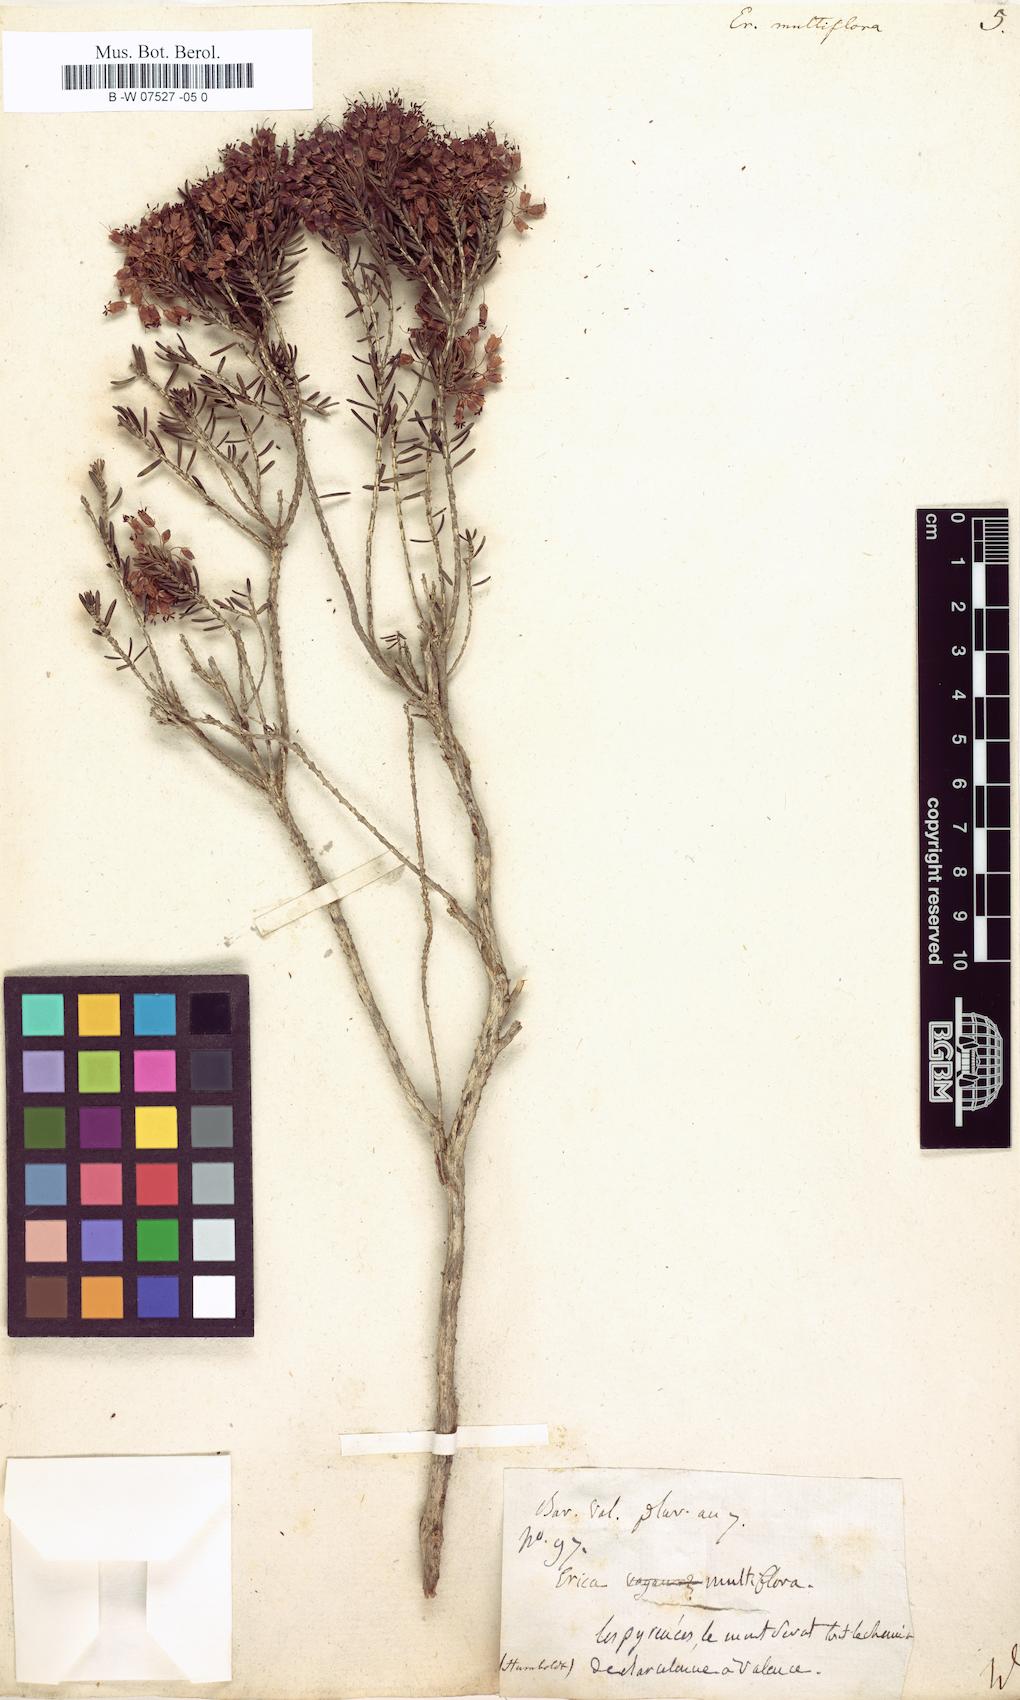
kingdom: Plantae
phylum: Tracheophyta
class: Magnoliopsida
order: Ericales
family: Ericaceae
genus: Erica
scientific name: Erica multiflora
